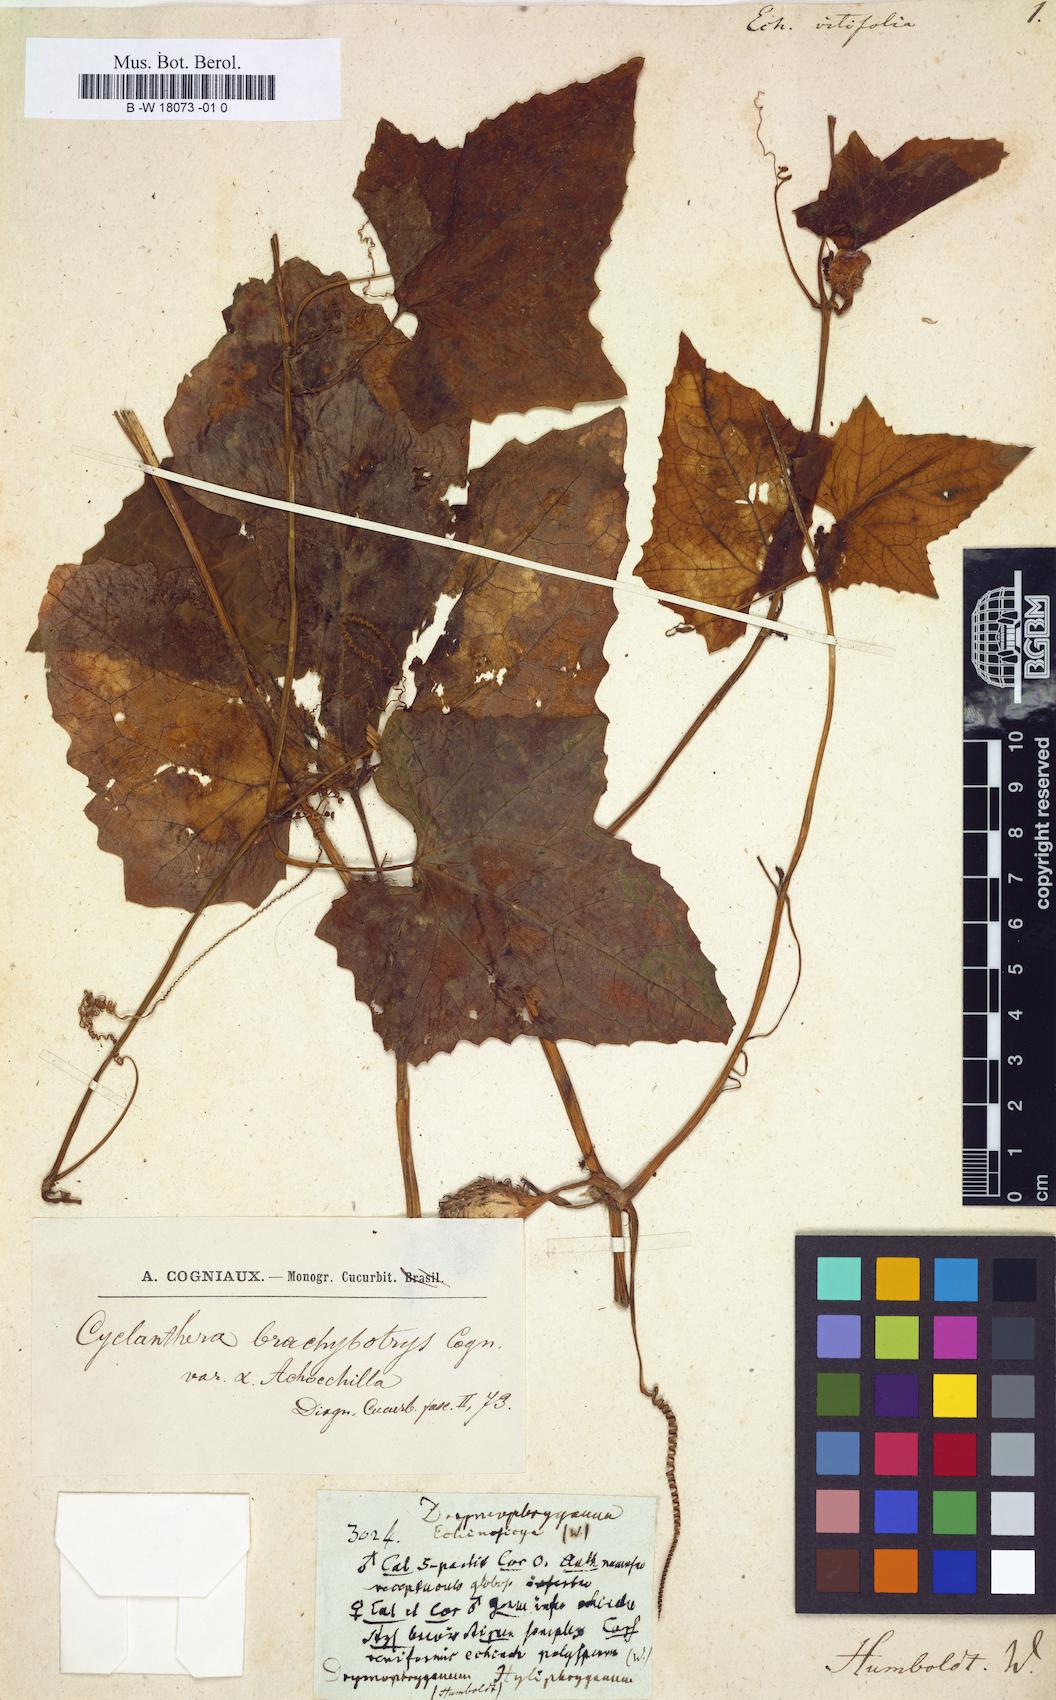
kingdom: Plantae
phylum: Tracheophyta
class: Magnoliopsida
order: Cucurbitales
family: Cucurbitaceae
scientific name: Cucurbitaceae
